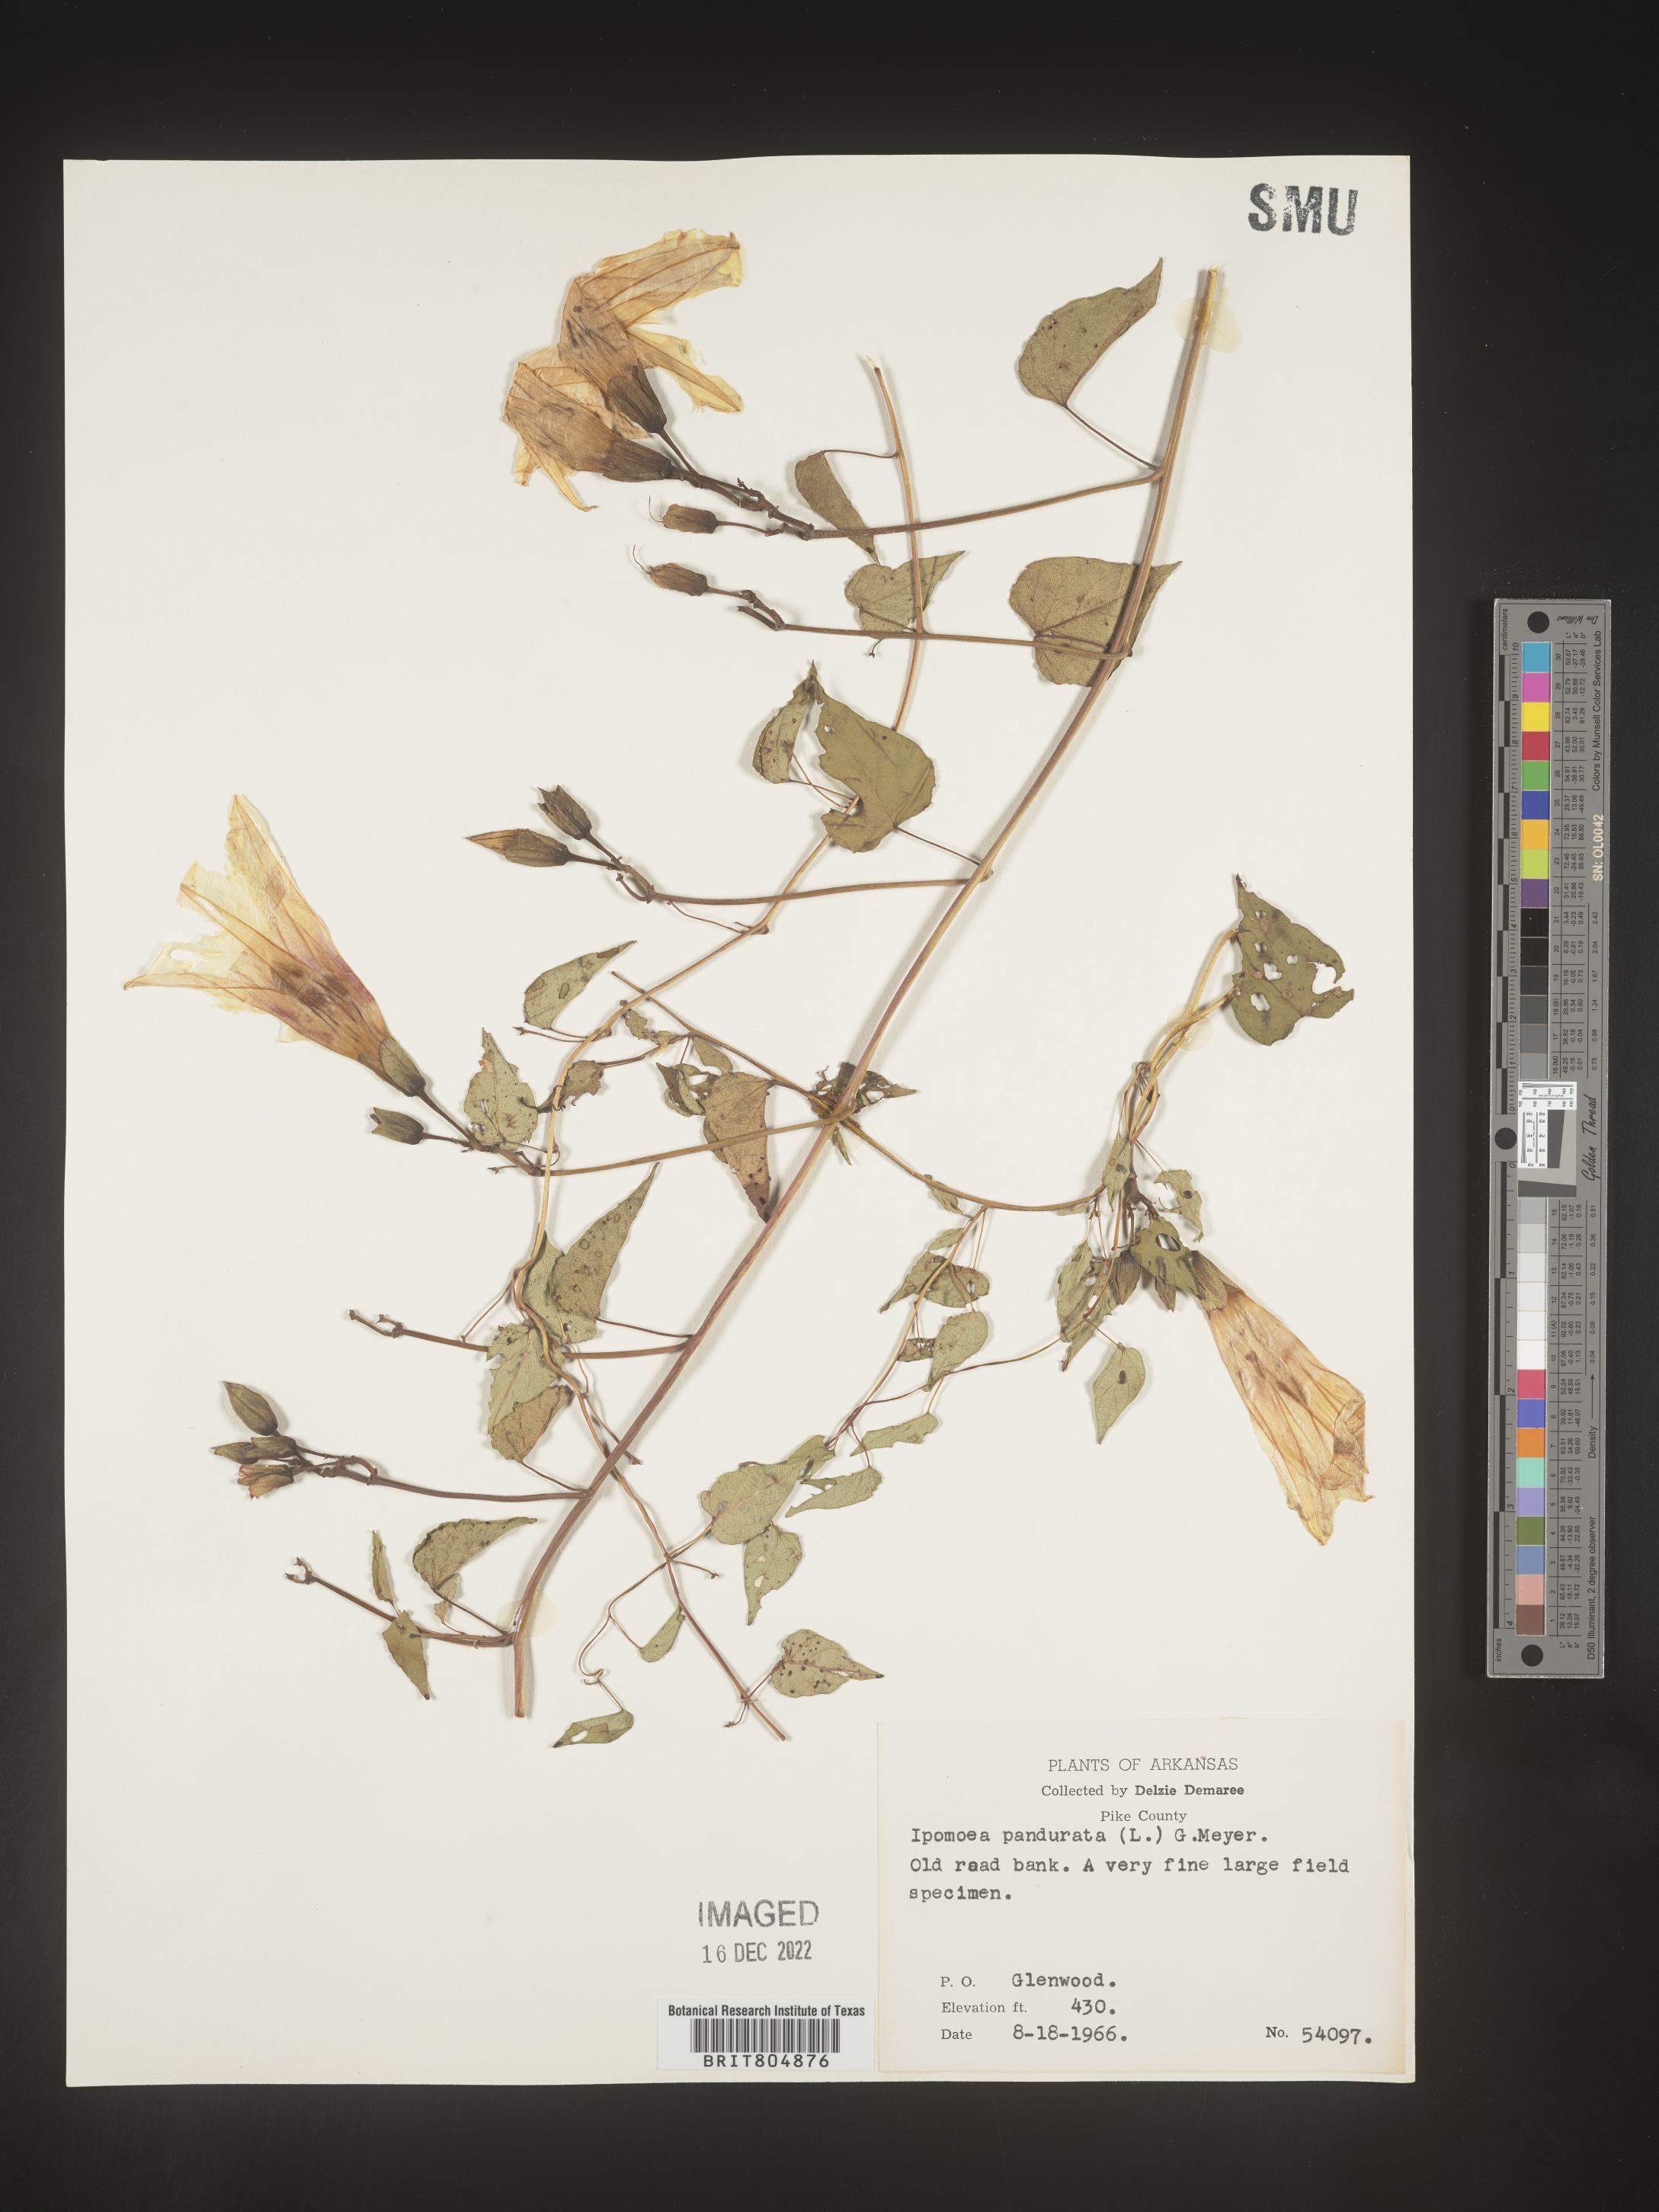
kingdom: Plantae
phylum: Tracheophyta
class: Magnoliopsida
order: Solanales
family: Convolvulaceae
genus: Ipomoea
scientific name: Ipomoea pandurata
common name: Man-of-the-earth
